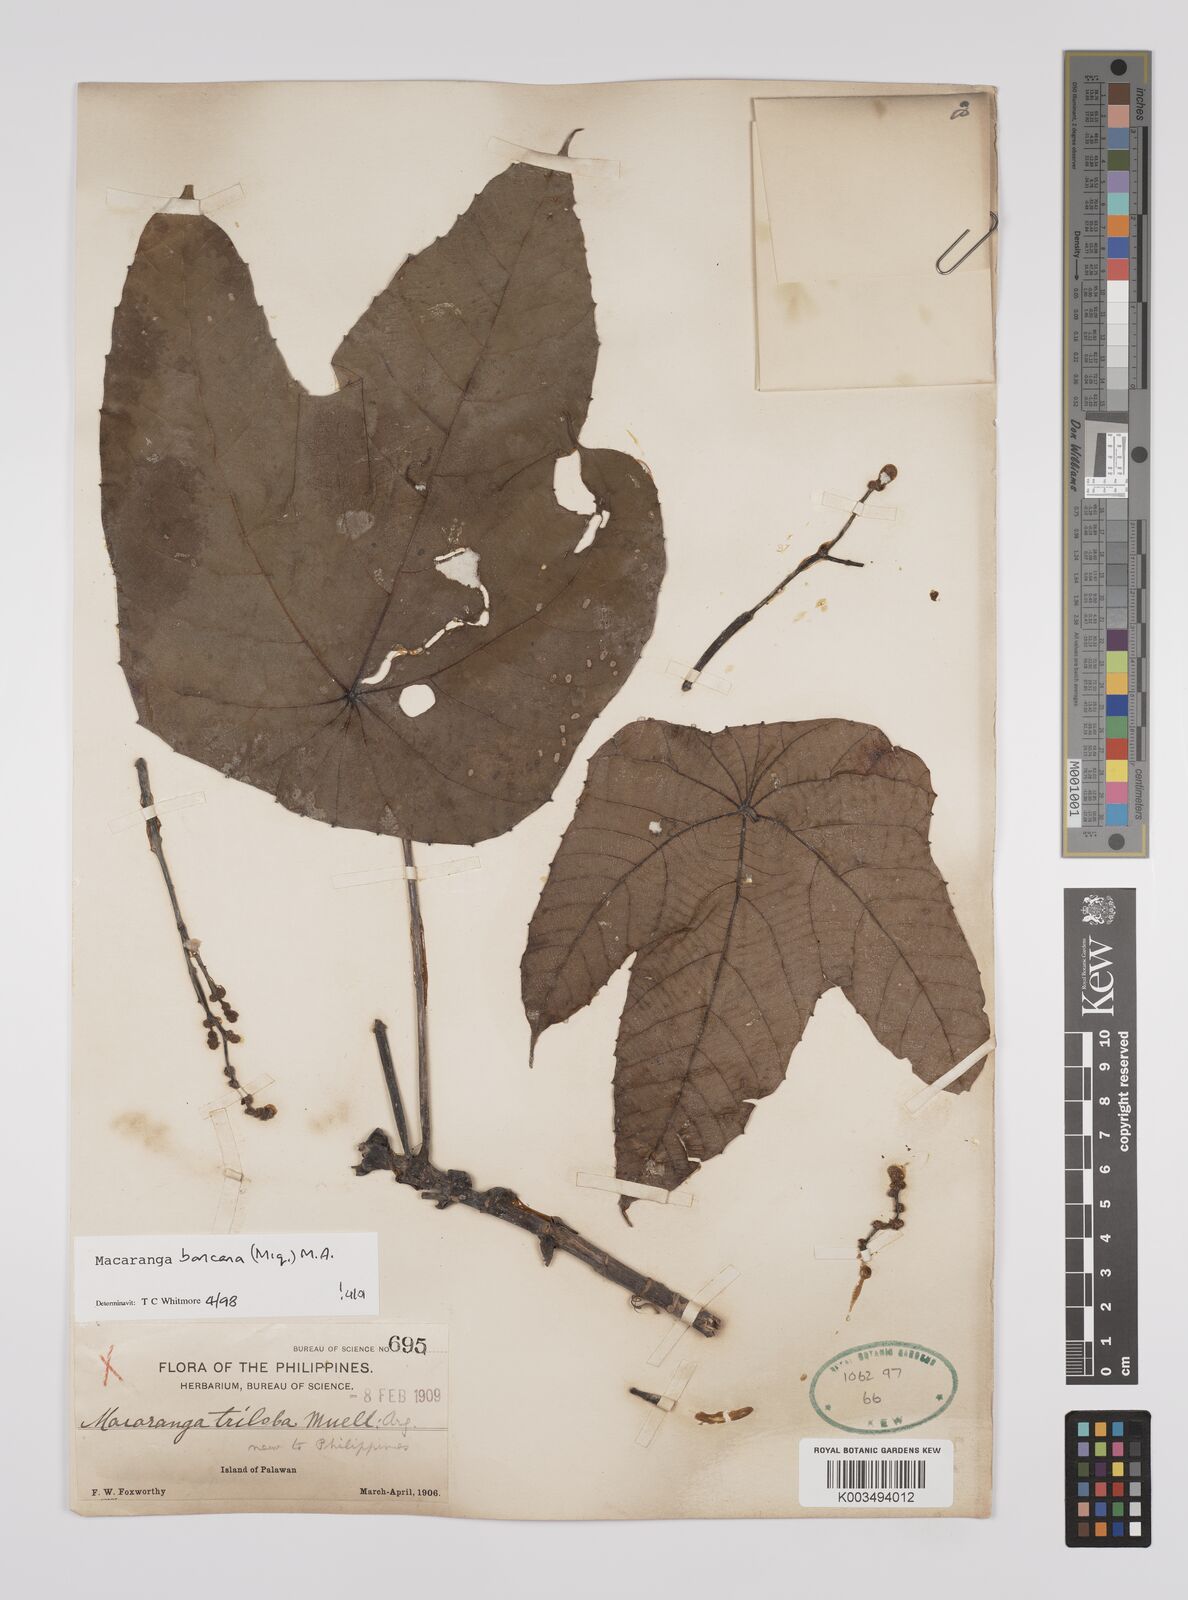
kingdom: Plantae
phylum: Tracheophyta
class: Magnoliopsida
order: Malpighiales
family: Euphorbiaceae
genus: Macaranga
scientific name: Macaranga bancana
